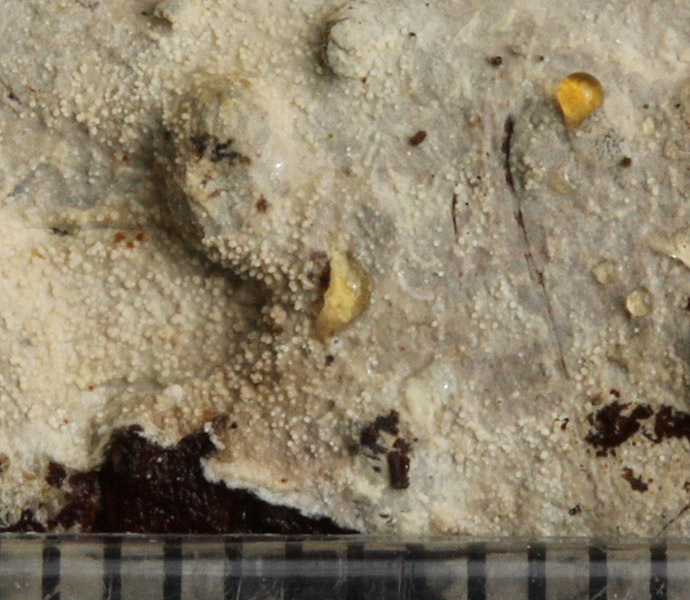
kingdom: Fungi
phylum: Basidiomycota
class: Agaricomycetes
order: Trechisporales
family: Hydnodontaceae
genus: Brevicellicium
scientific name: Brevicellicium olivascens
